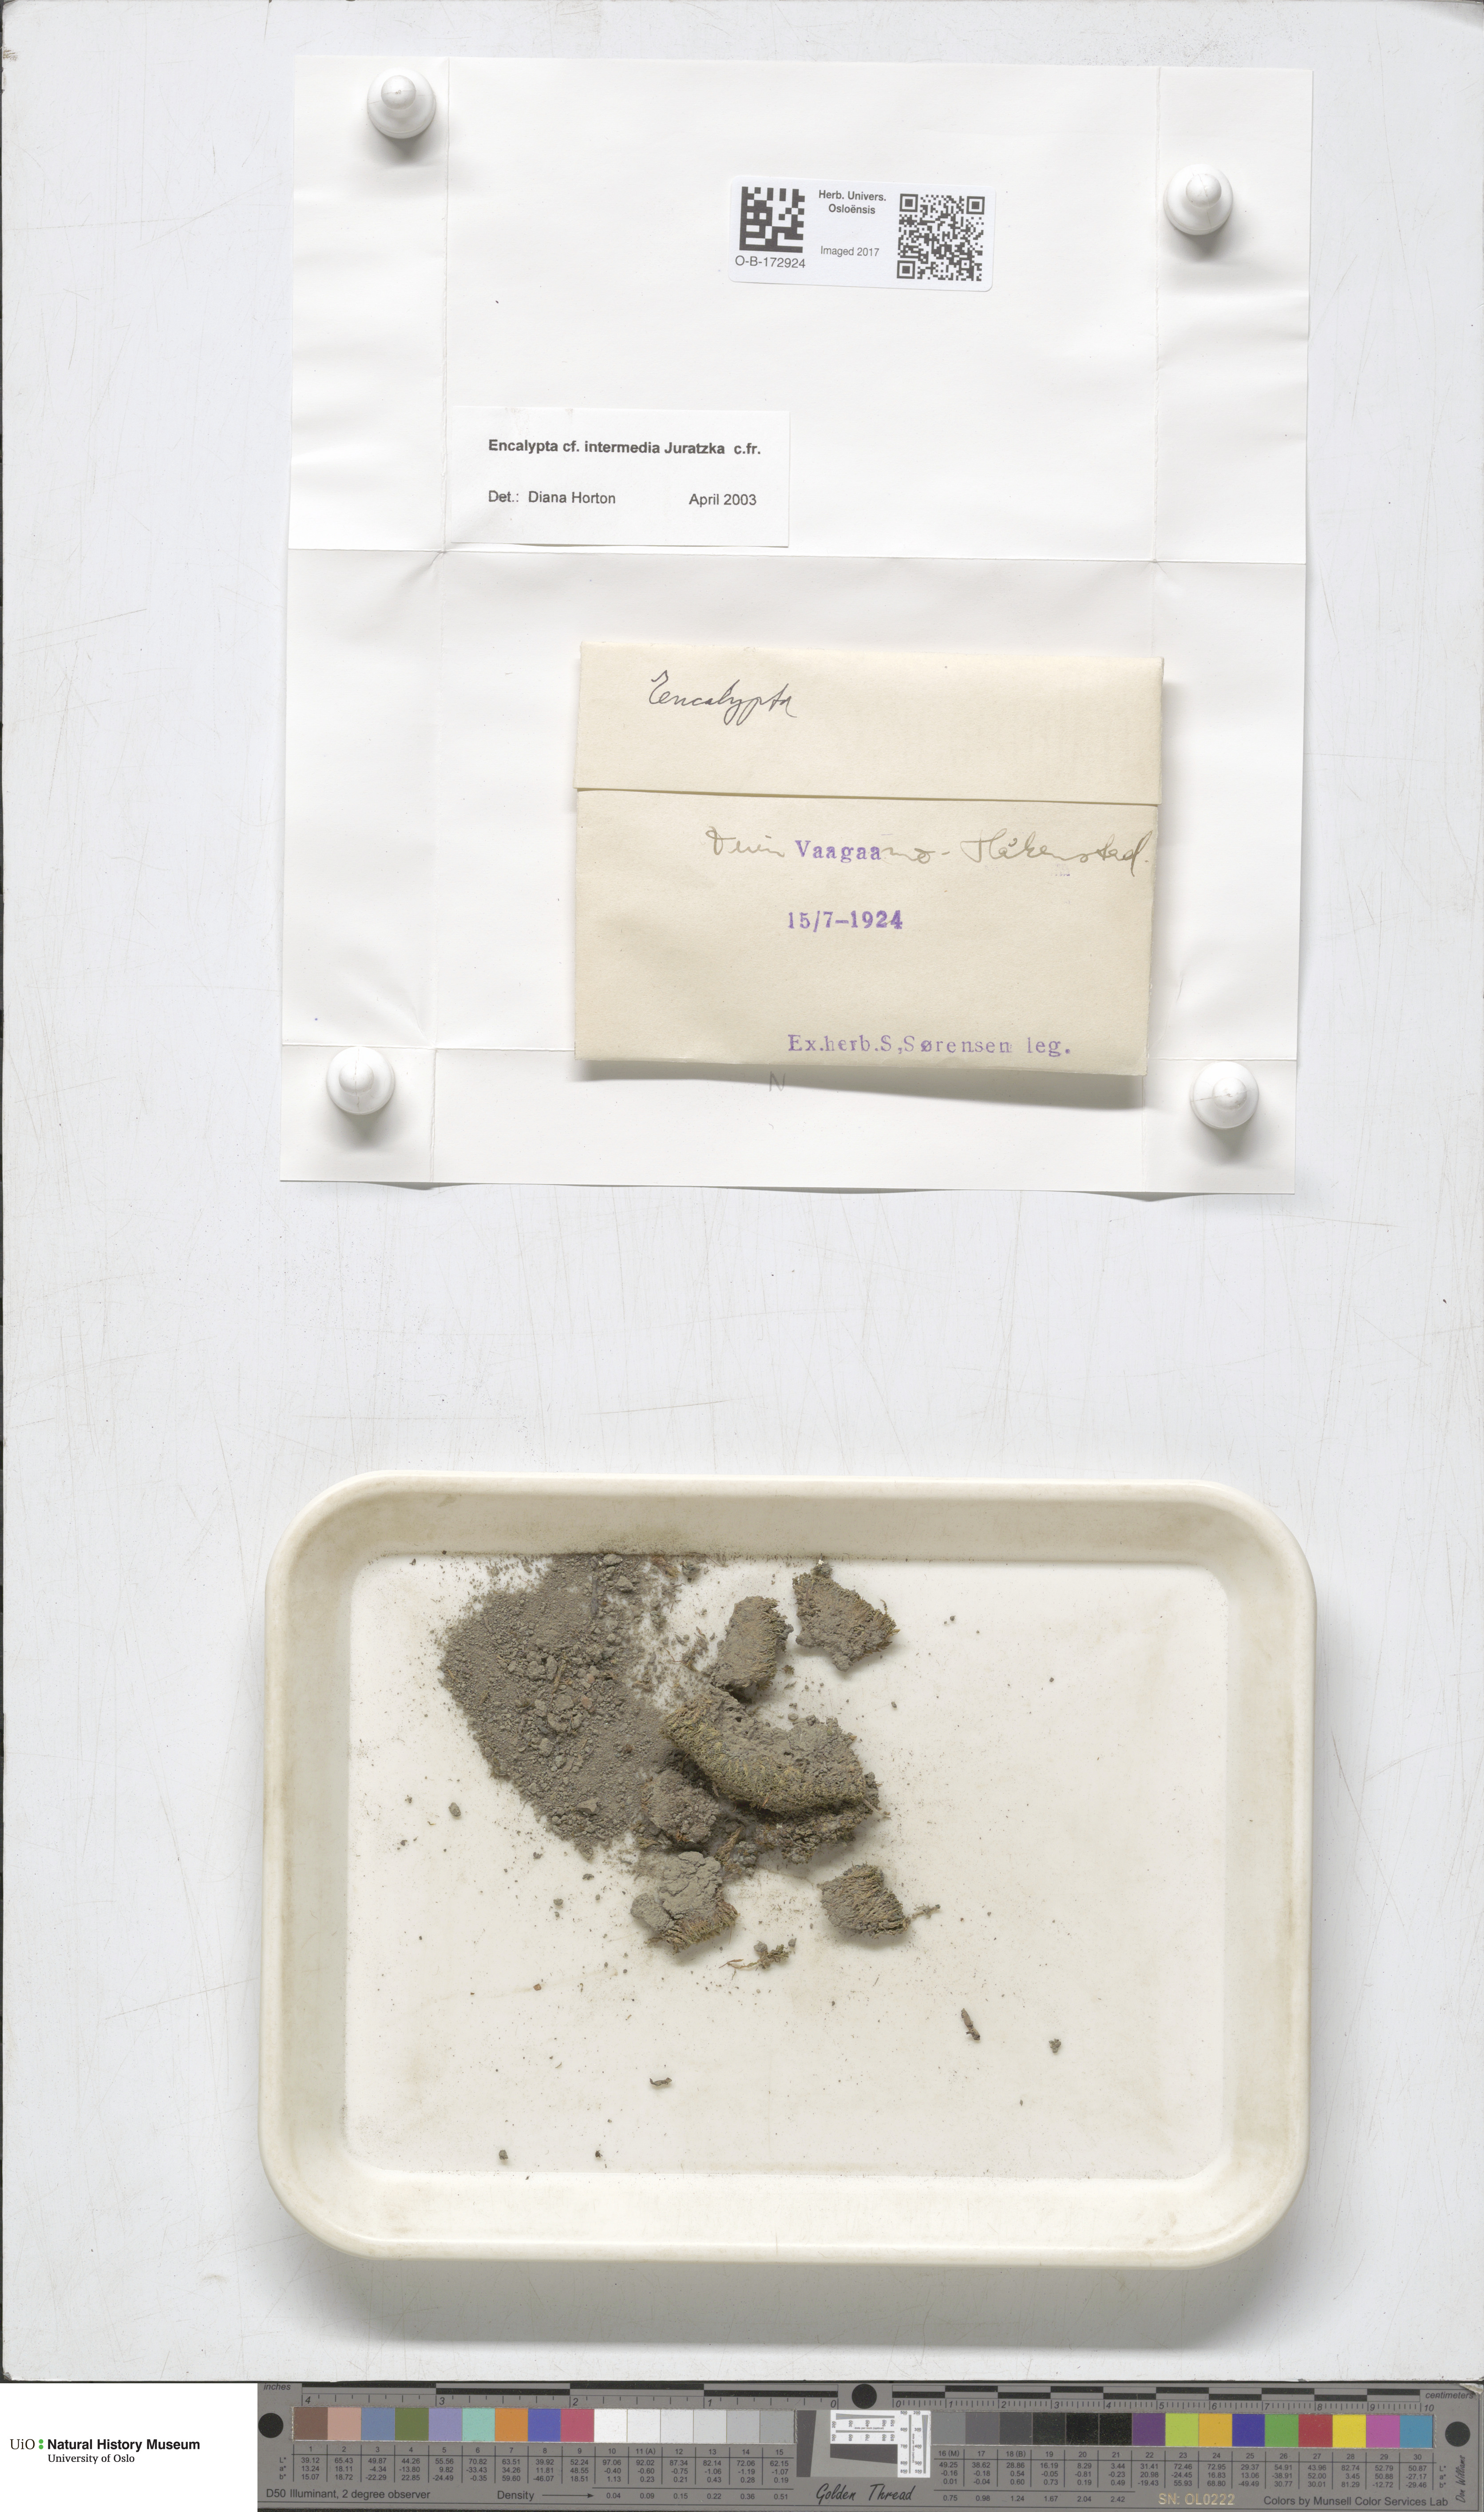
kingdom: Plantae
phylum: Bryophyta
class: Bryopsida
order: Encalyptales
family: Encalyptaceae
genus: Encalypta
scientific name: Encalypta rhaptocarpa
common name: Ribbed extinguisher moss
